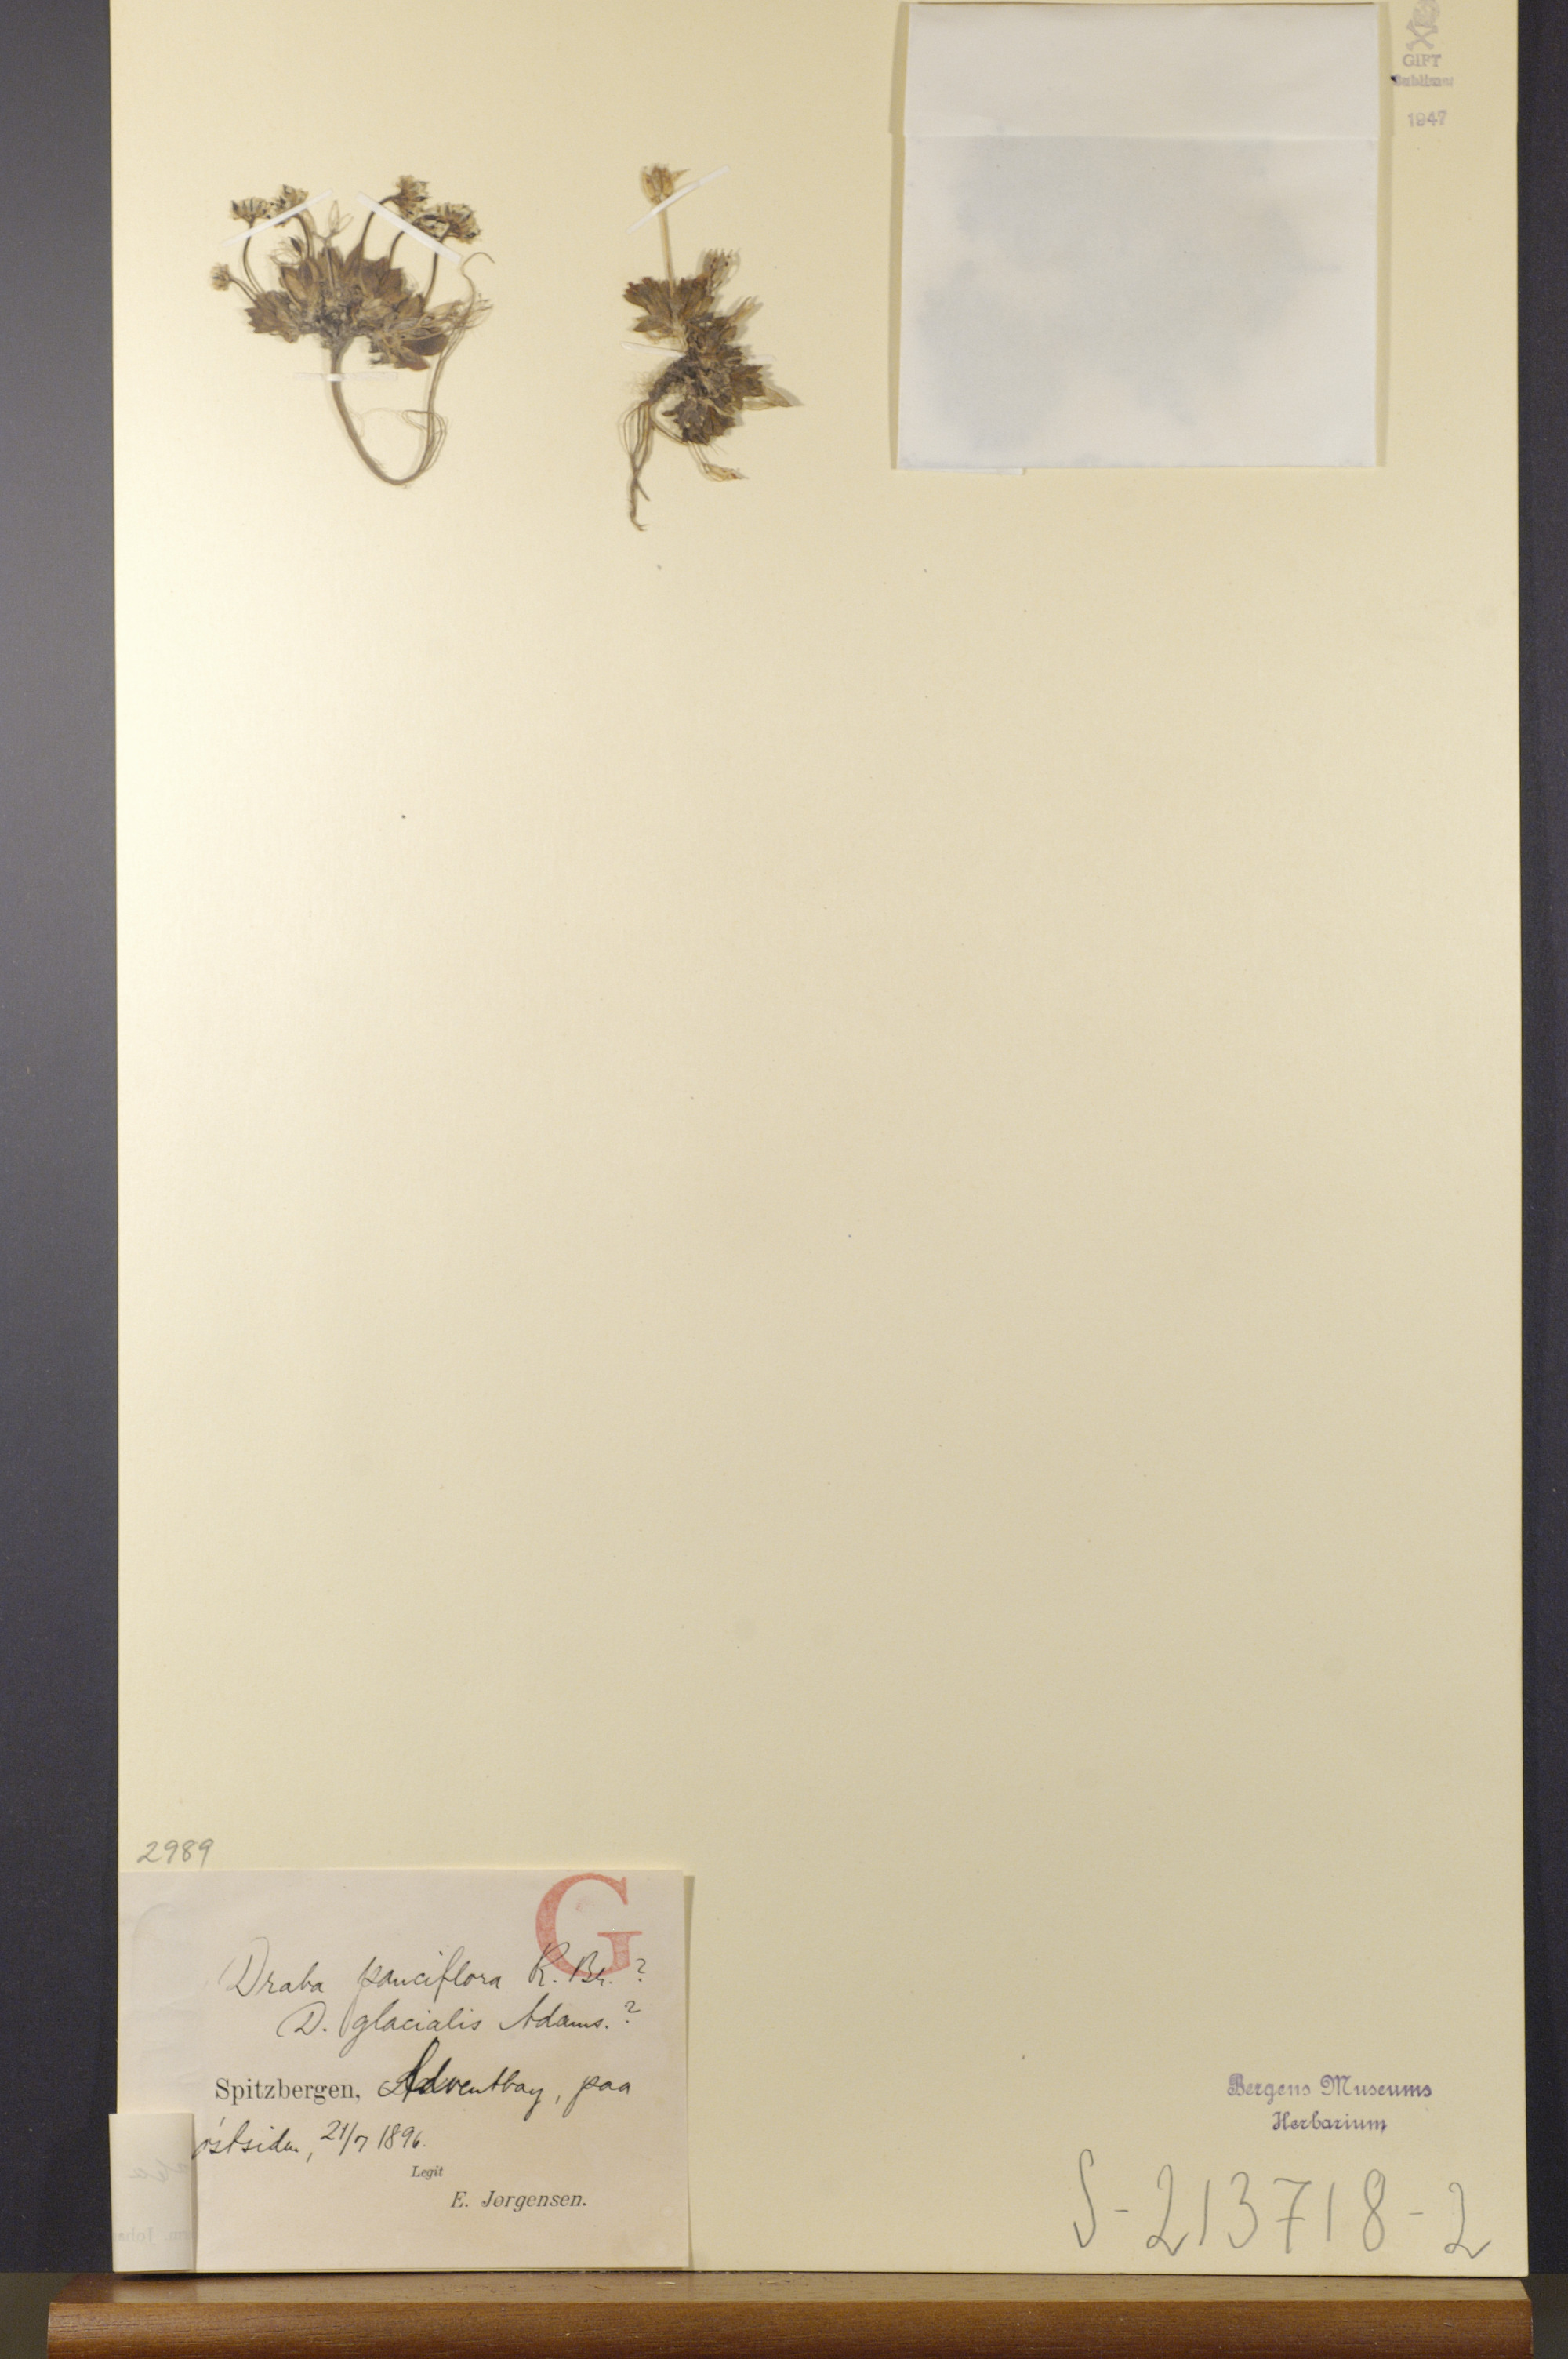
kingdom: Plantae
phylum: Tracheophyta
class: Magnoliopsida
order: Brassicales
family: Brassicaceae
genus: Draba
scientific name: Draba alpina
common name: Alpine draba
